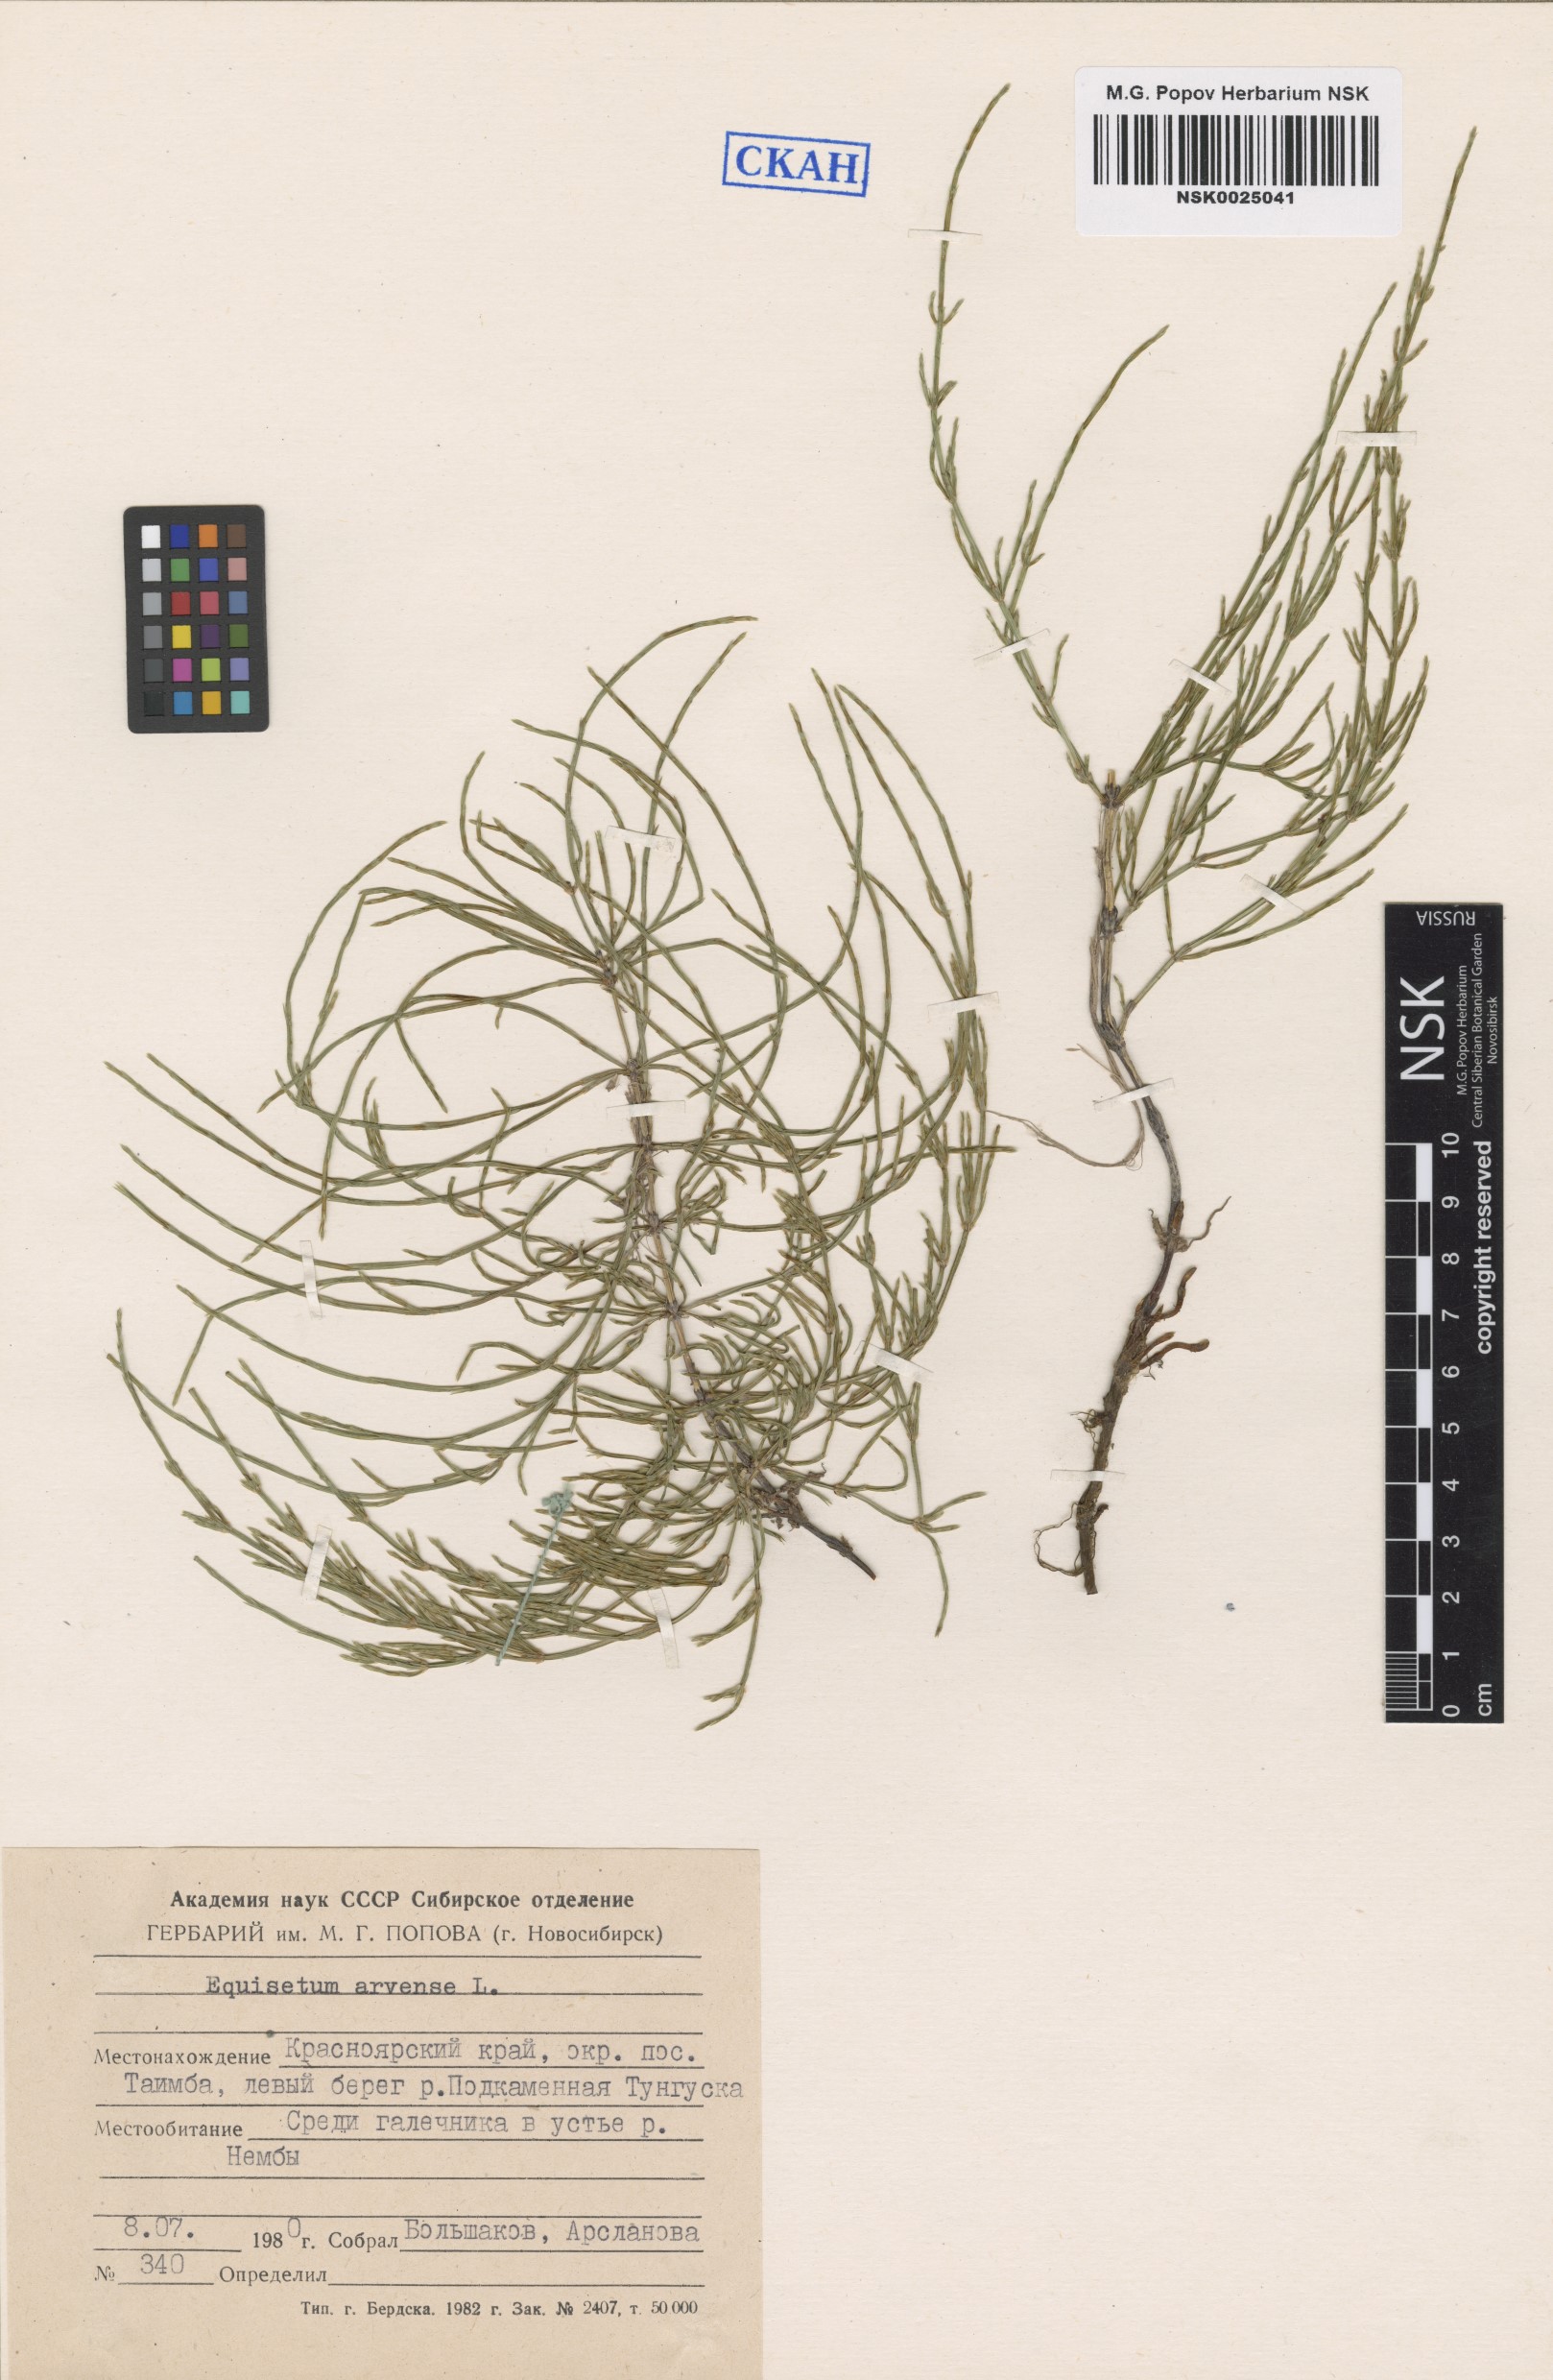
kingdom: Plantae
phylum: Tracheophyta
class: Polypodiopsida
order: Equisetales
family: Equisetaceae
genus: Equisetum
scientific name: Equisetum arvense
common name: Field horsetail
